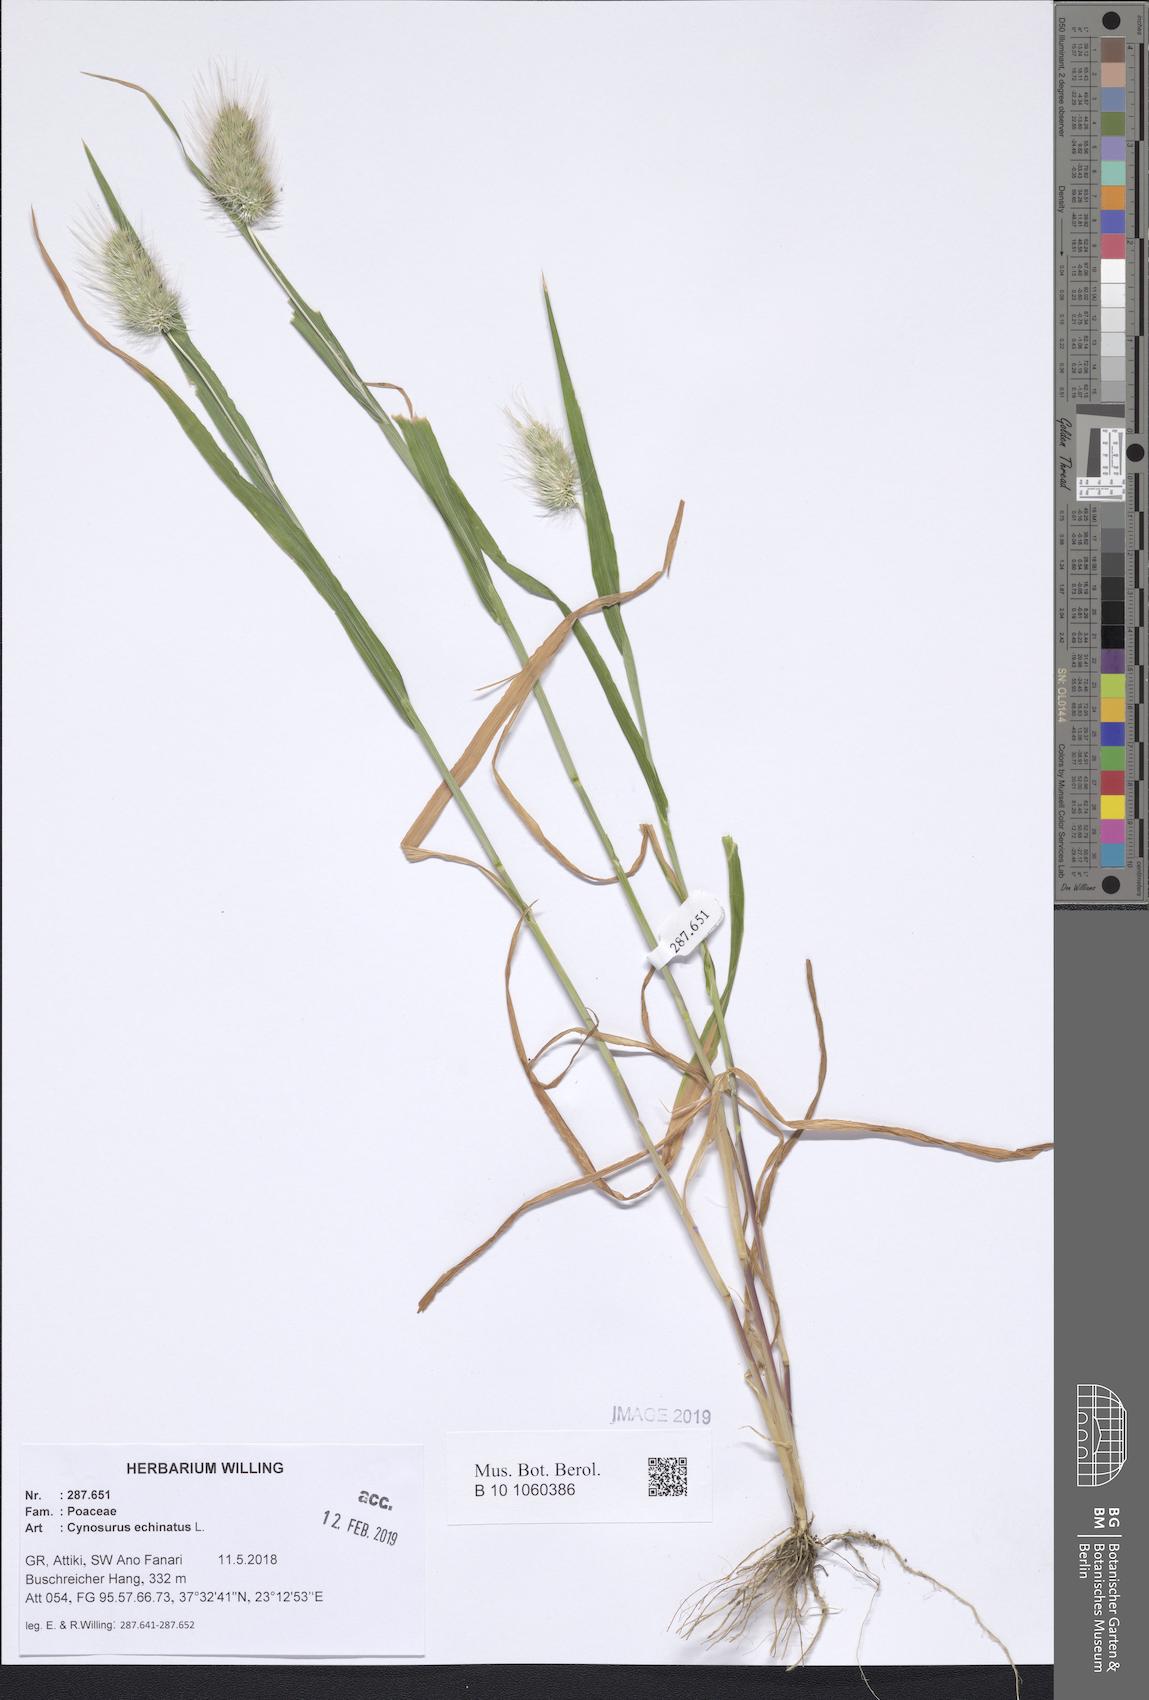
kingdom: Plantae
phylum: Tracheophyta
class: Liliopsida
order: Poales
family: Poaceae
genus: Cynosurus
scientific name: Cynosurus echinatus
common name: Rough dog's-tail
